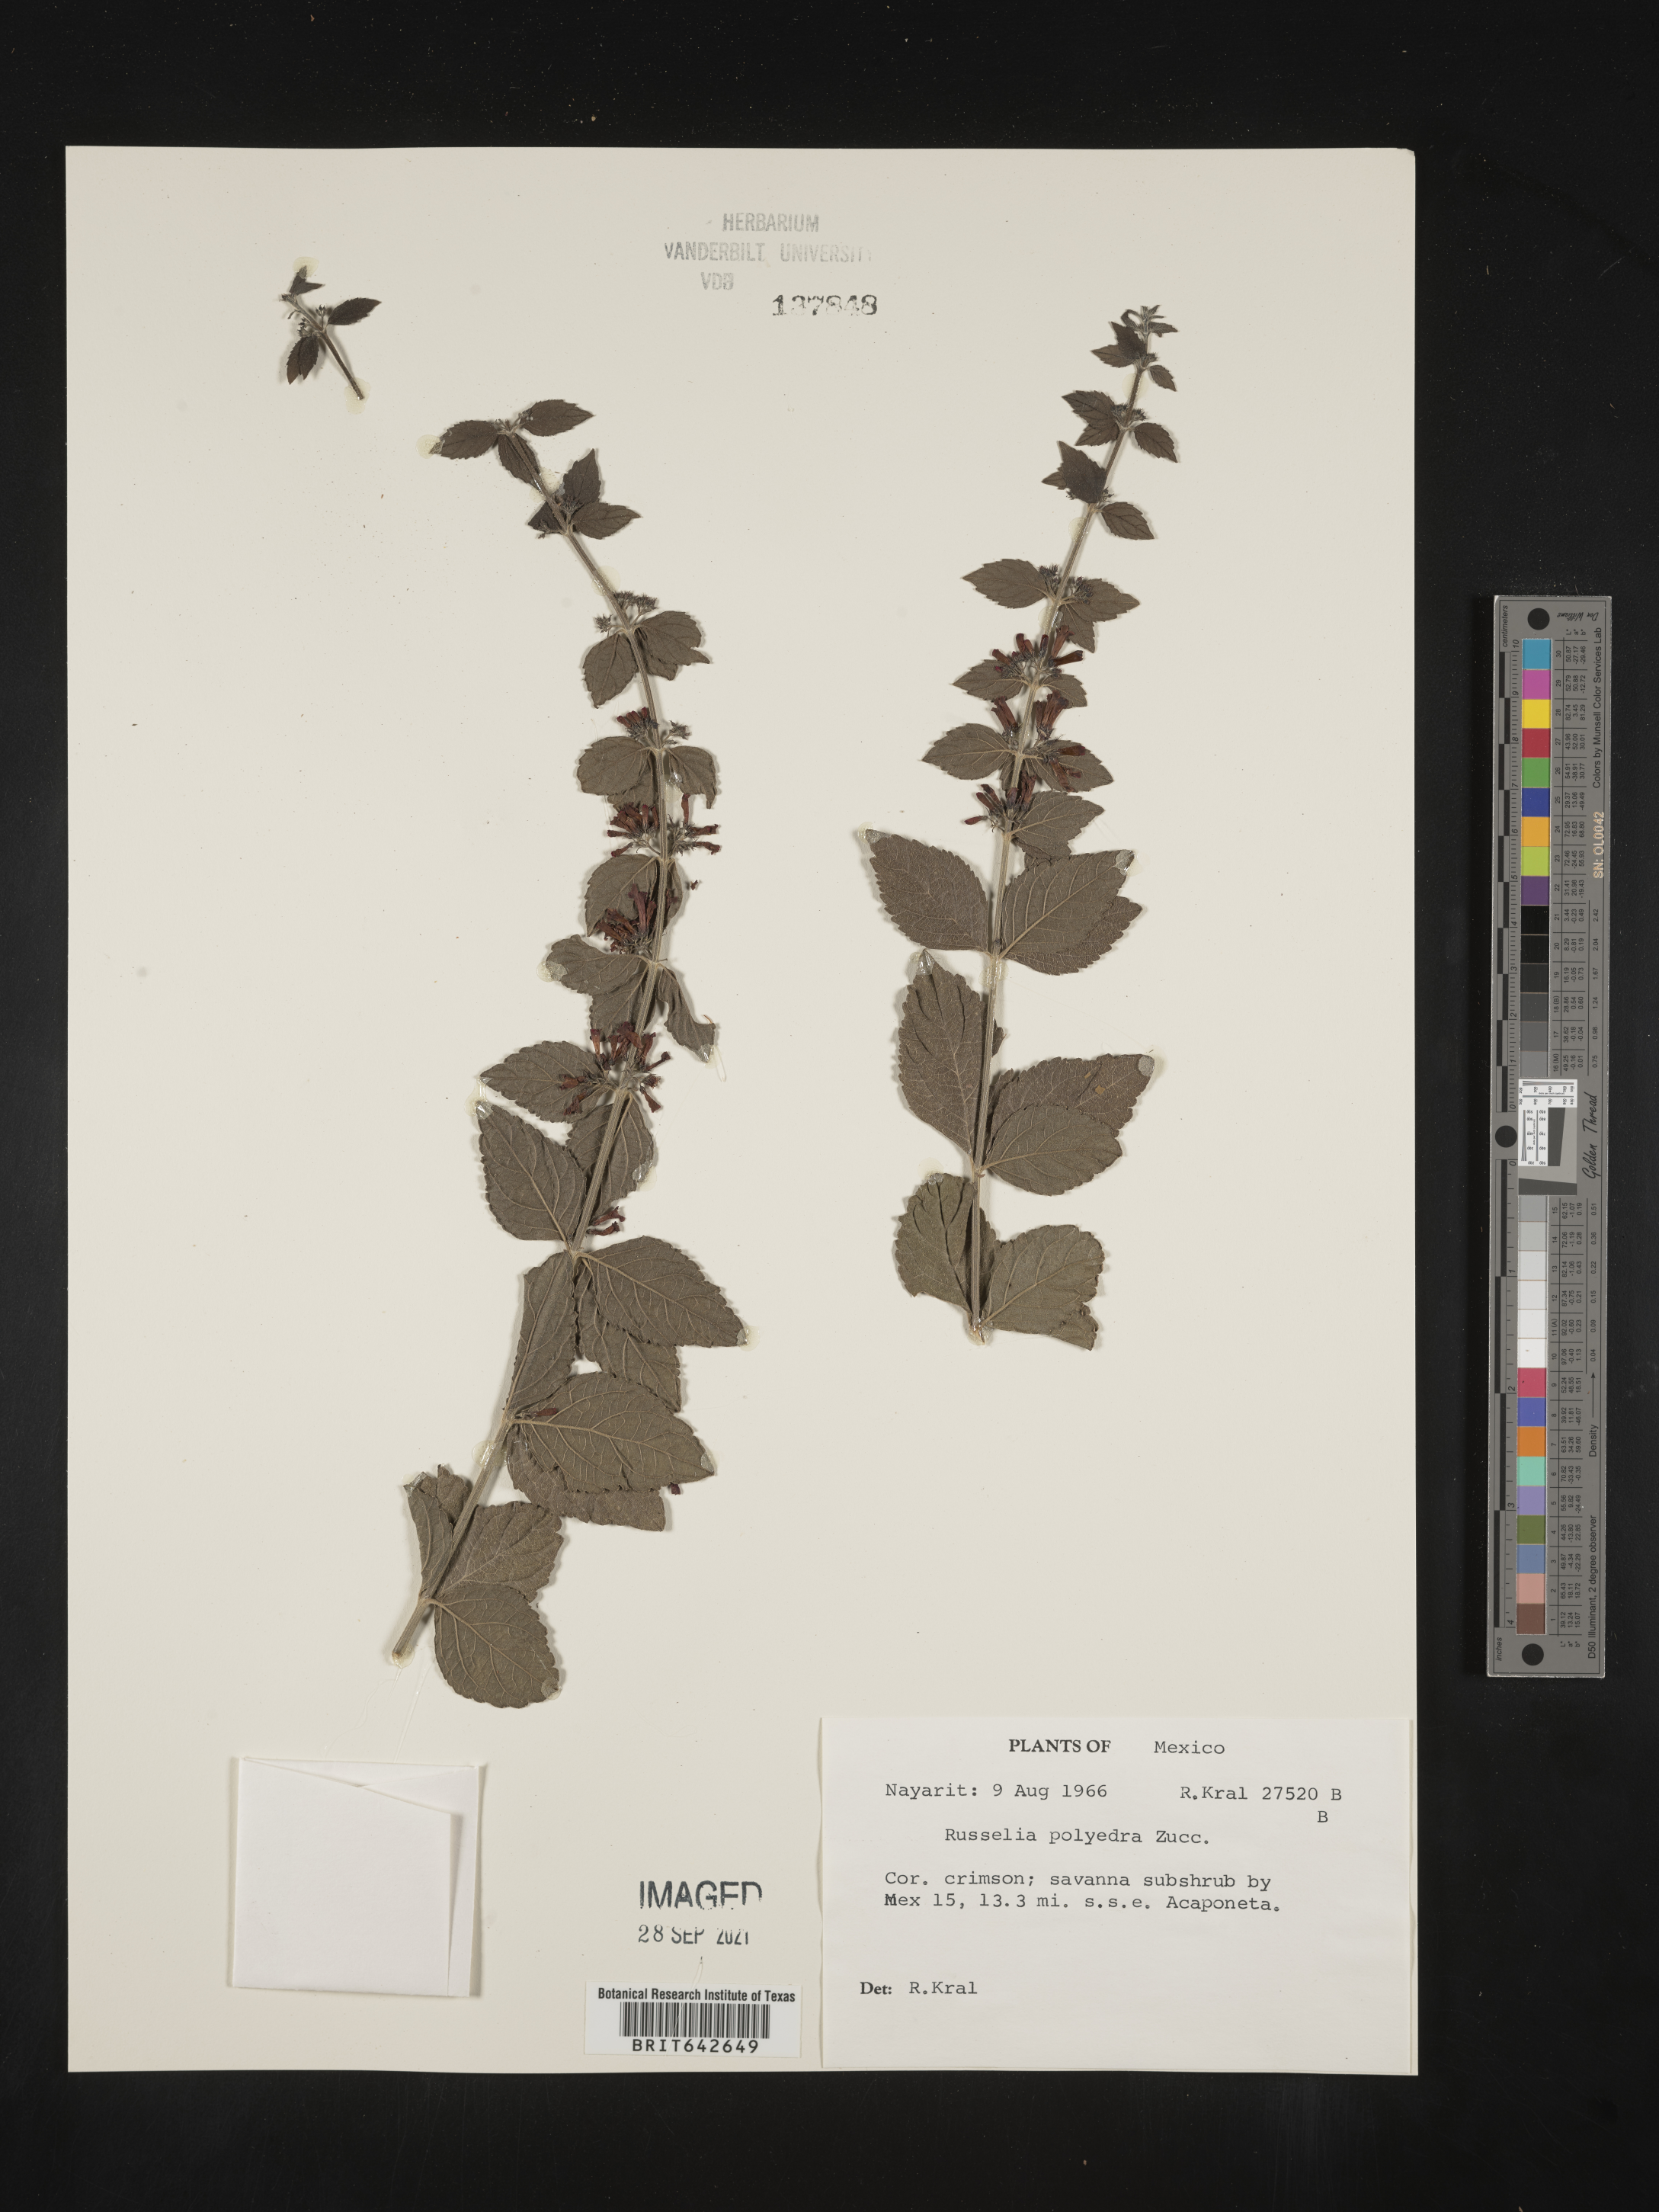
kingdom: Plantae
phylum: Tracheophyta
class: Magnoliopsida
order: Lamiales
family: Plantaginaceae
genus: Russelia
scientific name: Russelia
